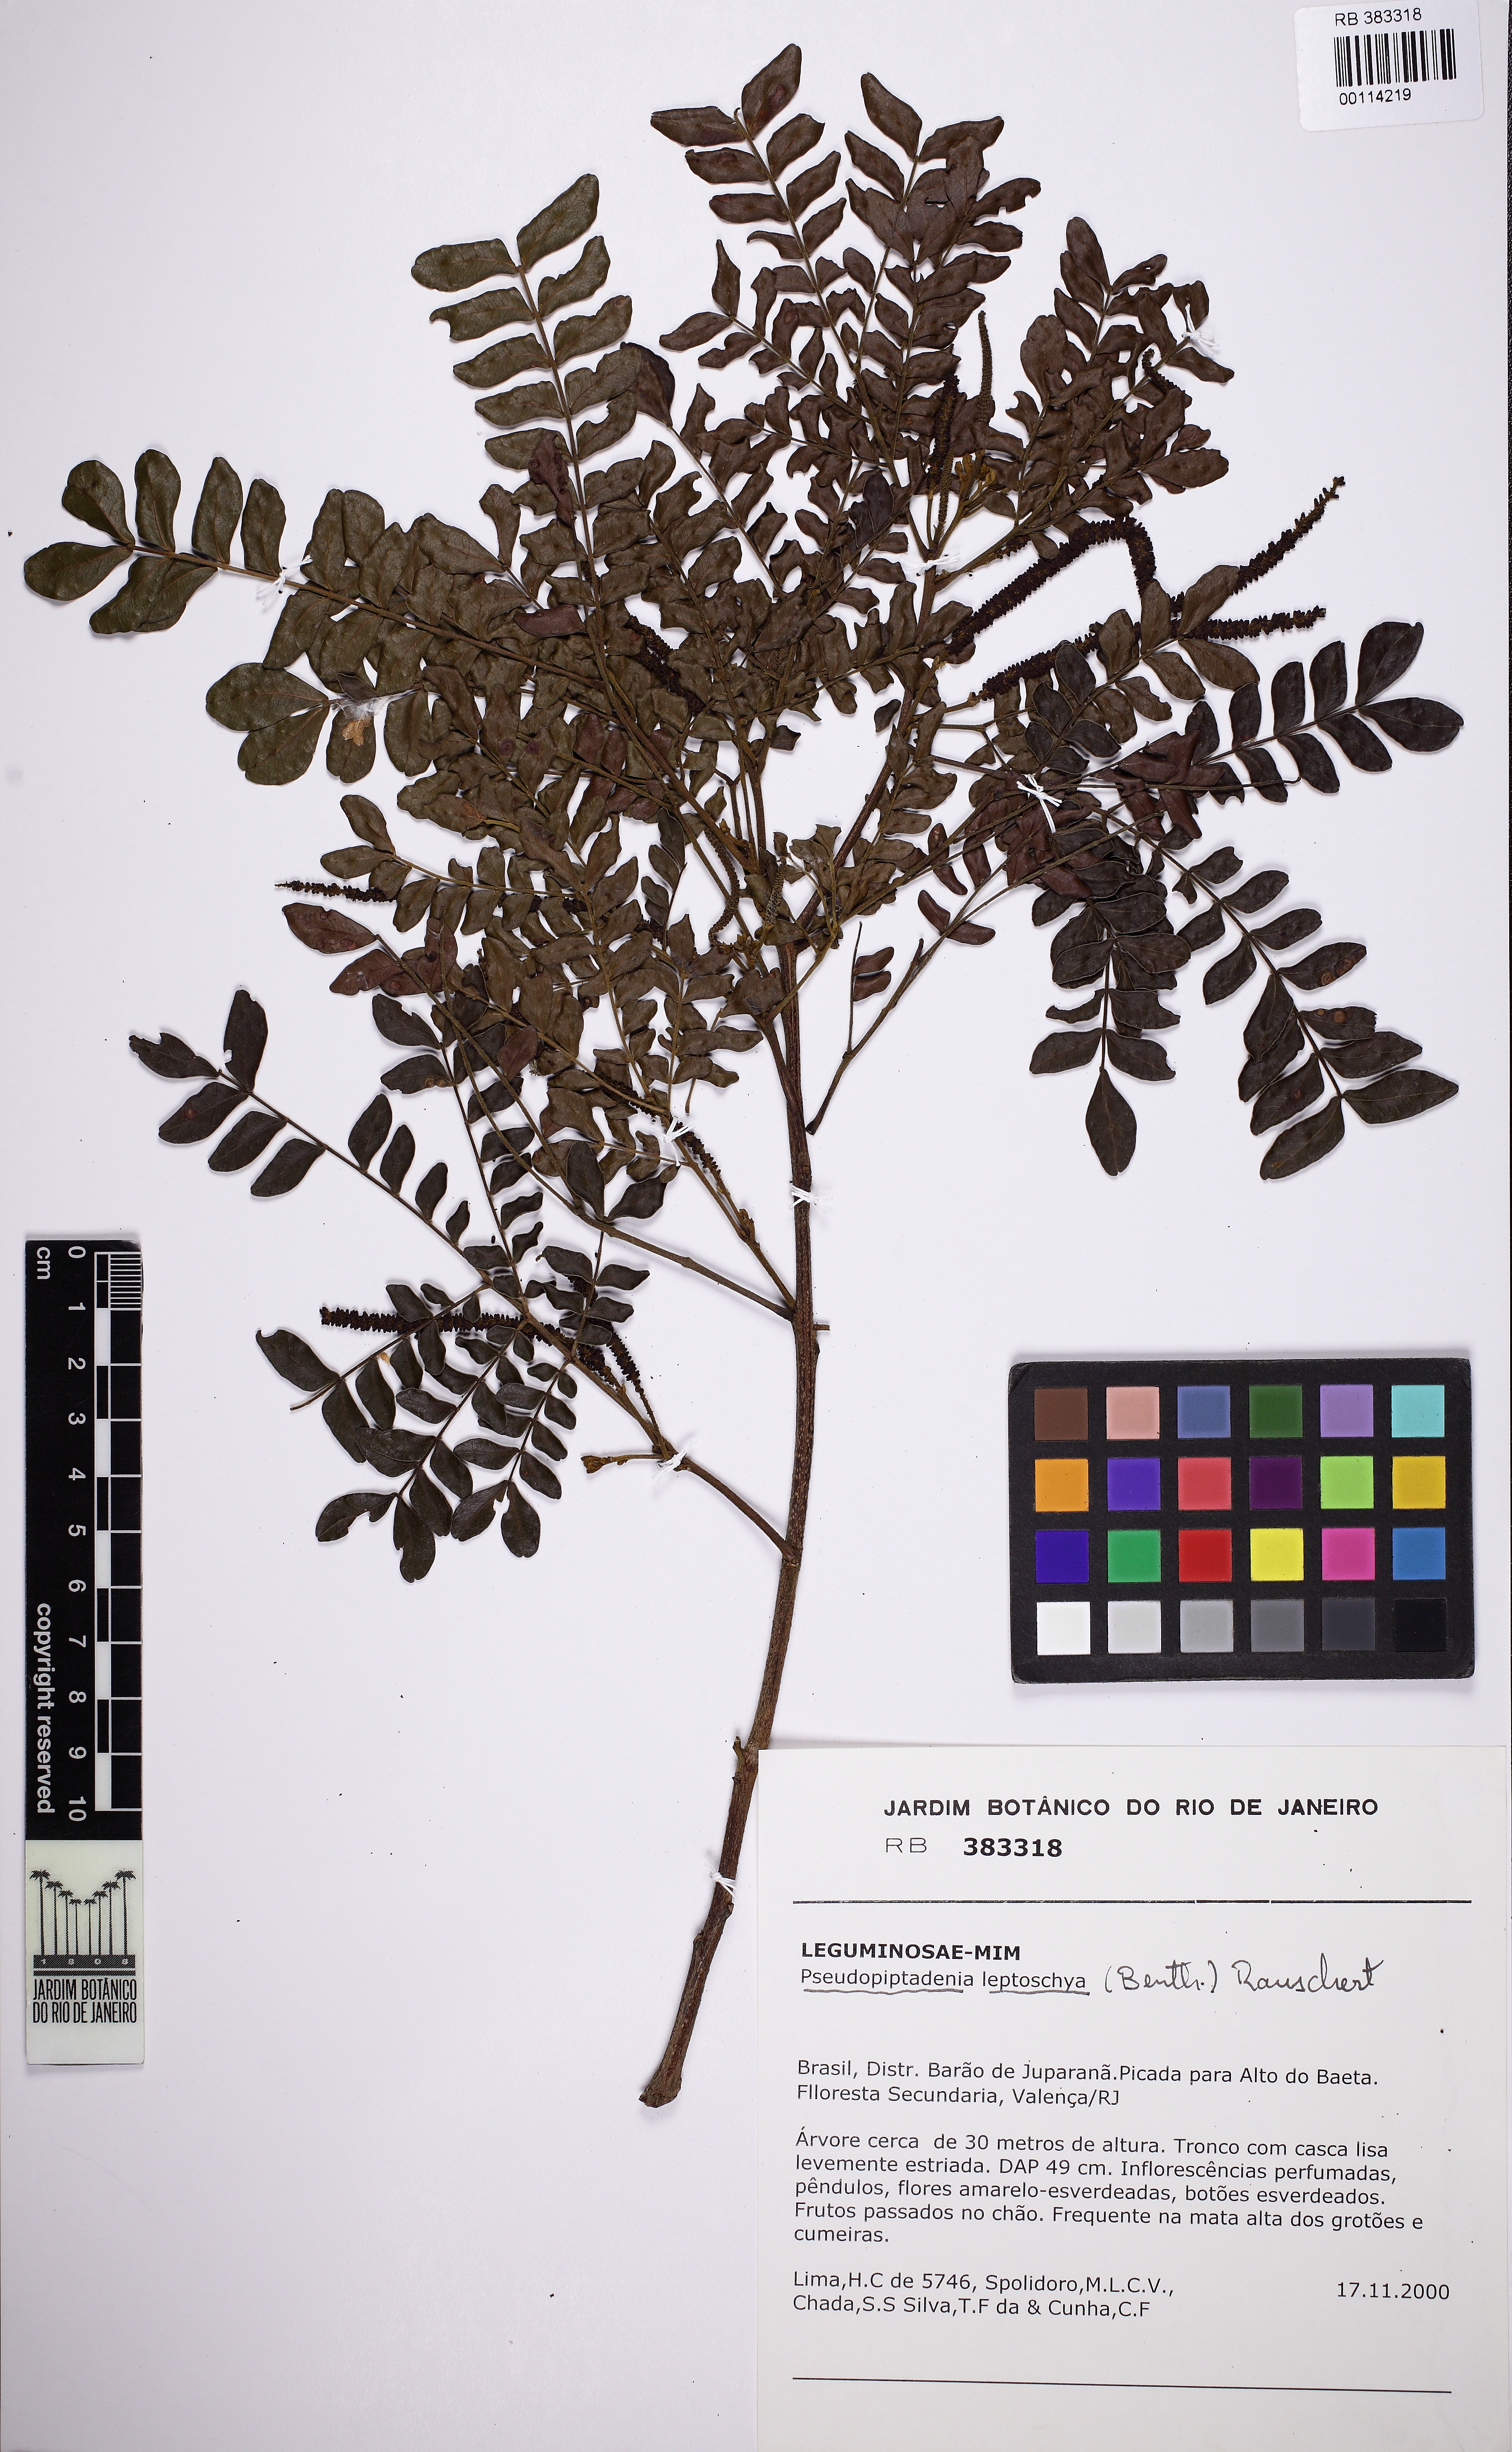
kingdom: Plantae
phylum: Tracheophyta
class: Magnoliopsida
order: Fabales
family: Fabaceae
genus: Pseudopiptadenia
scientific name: Pseudopiptadenia leptostachya
